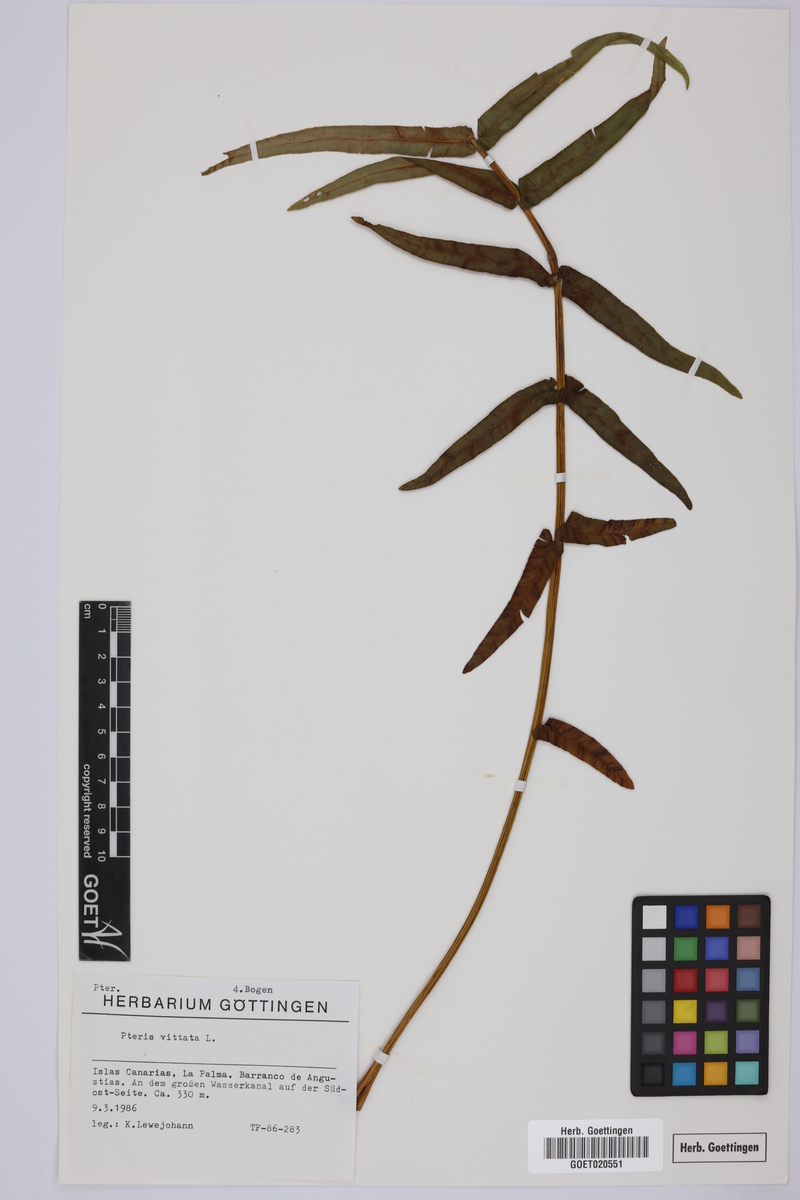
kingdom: Plantae
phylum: Tracheophyta
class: Polypodiopsida
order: Polypodiales
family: Pteridaceae
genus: Pteris
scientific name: Pteris vittata
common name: Ladder brake
